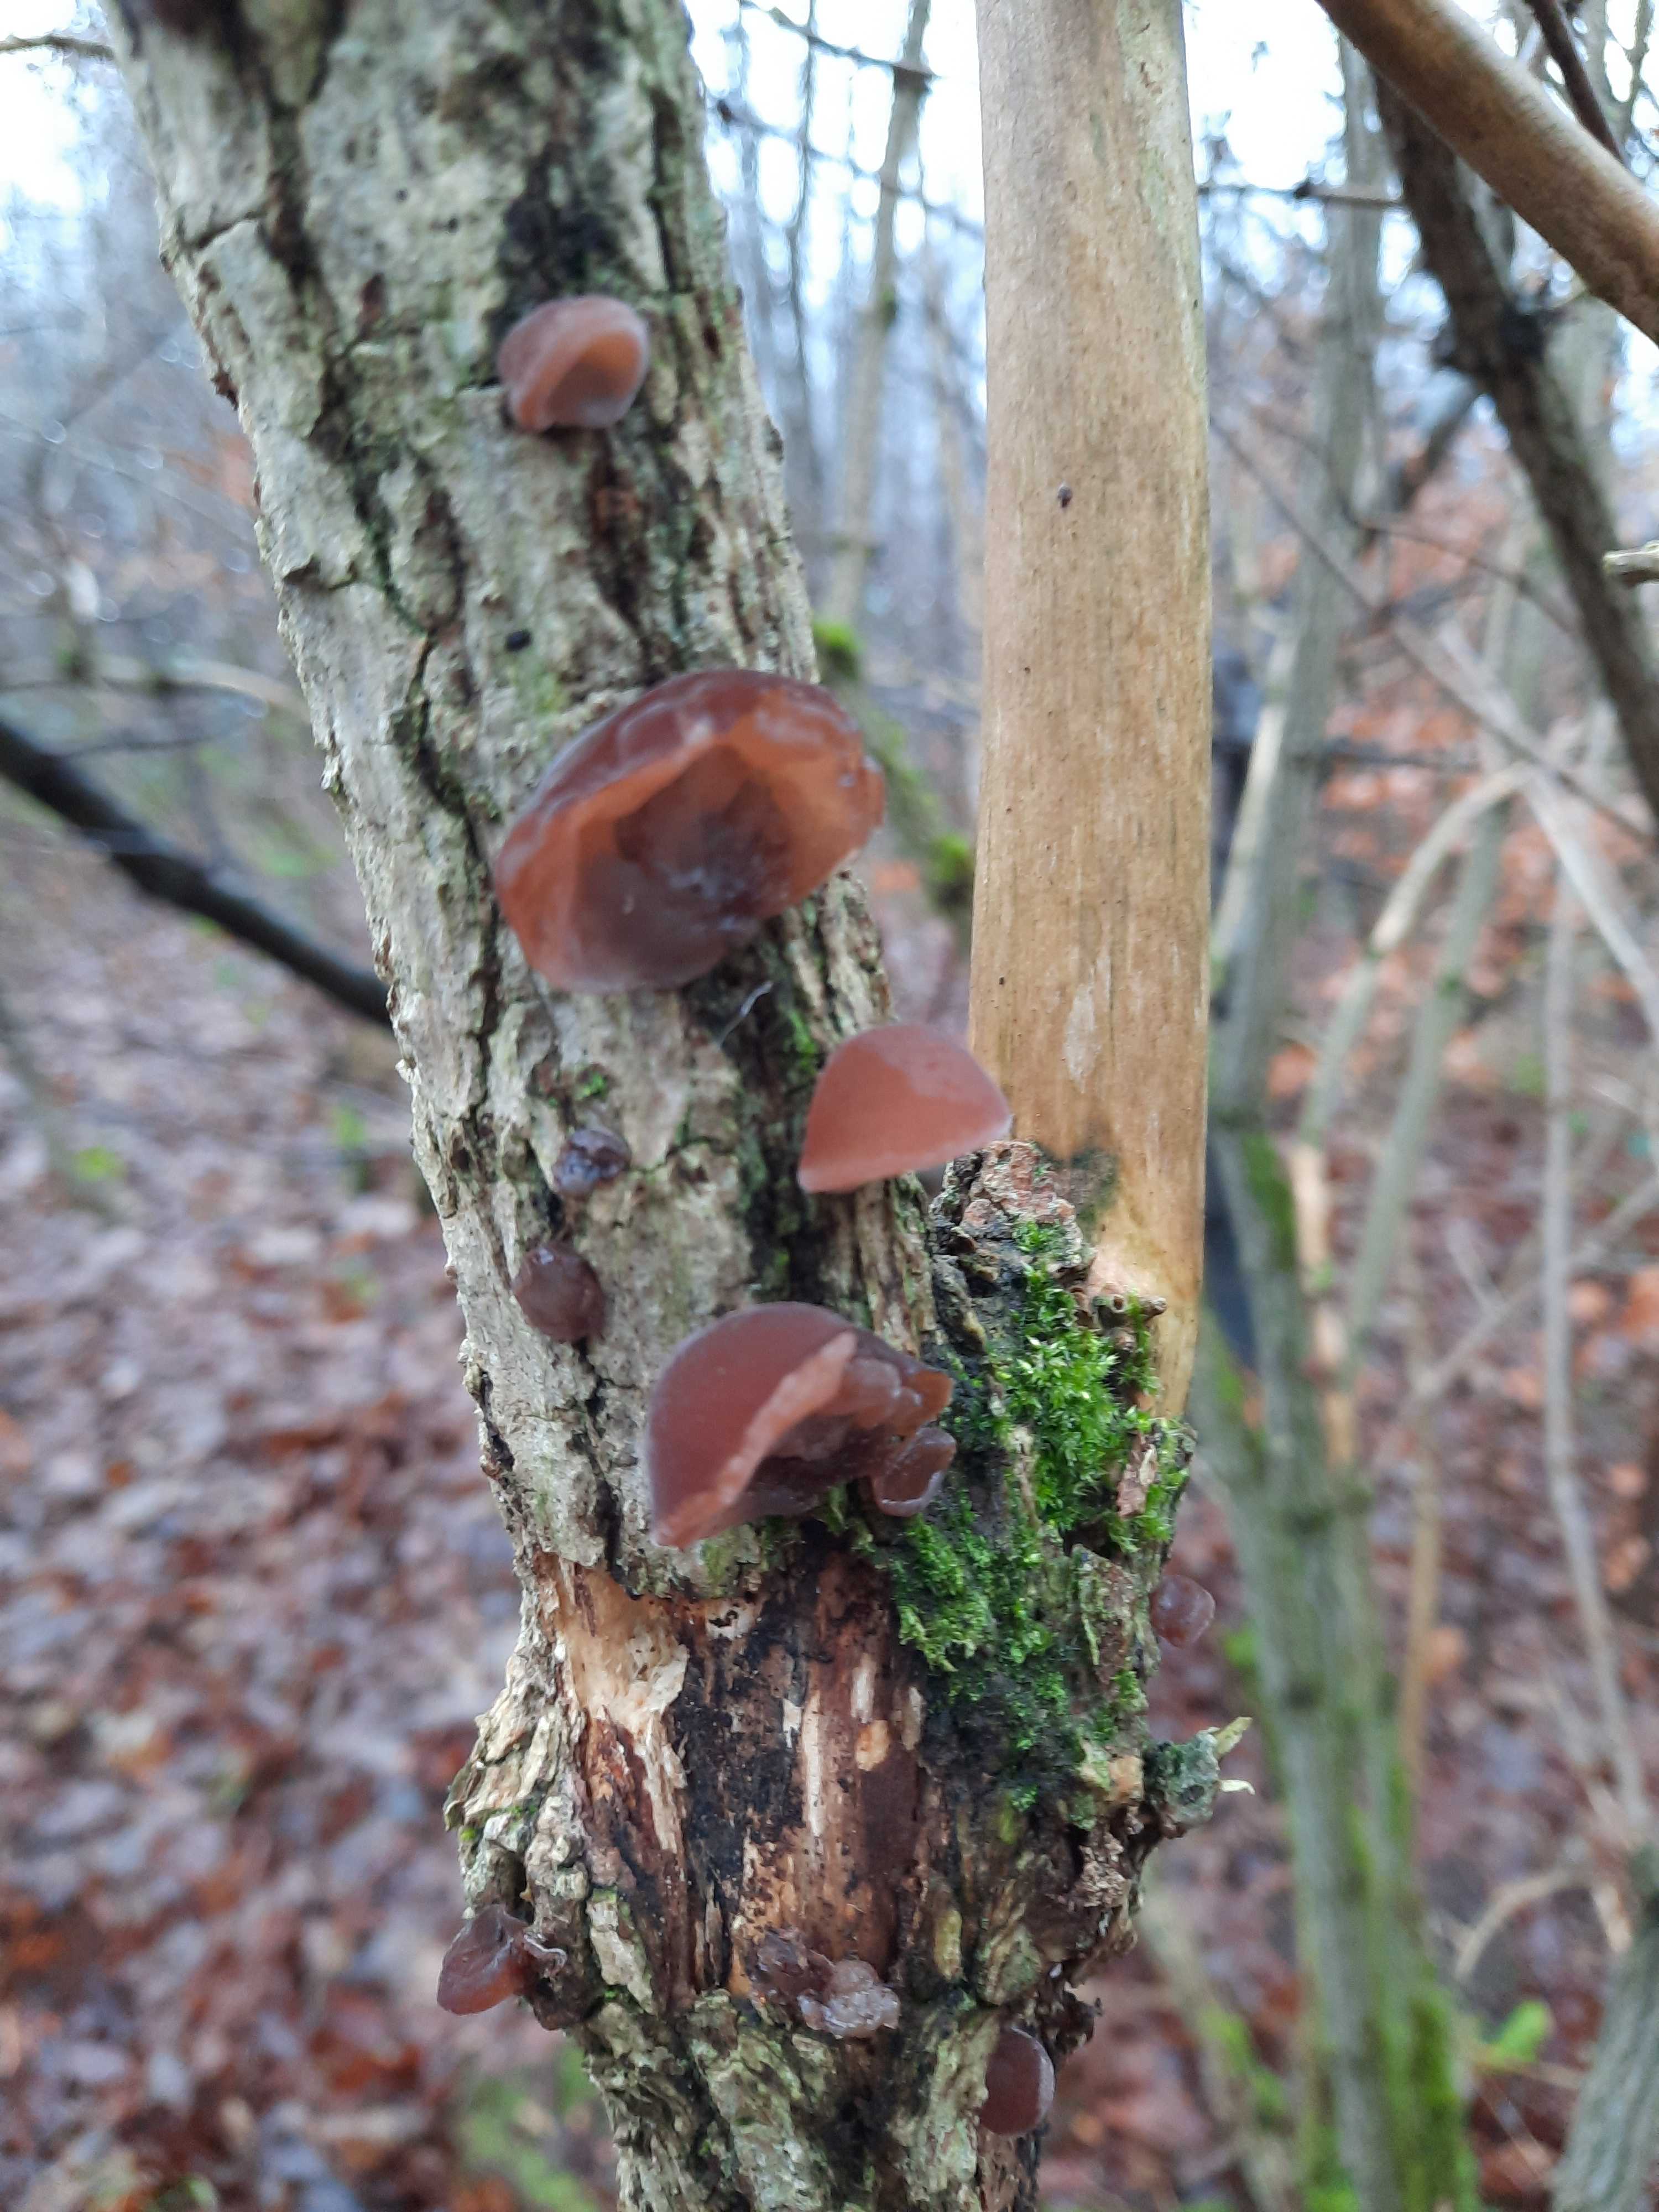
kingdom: Fungi
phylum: Basidiomycota
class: Agaricomycetes
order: Auriculariales
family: Auriculariaceae
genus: Auricularia
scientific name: Auricularia auricula-judae
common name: almindelig judasøre
